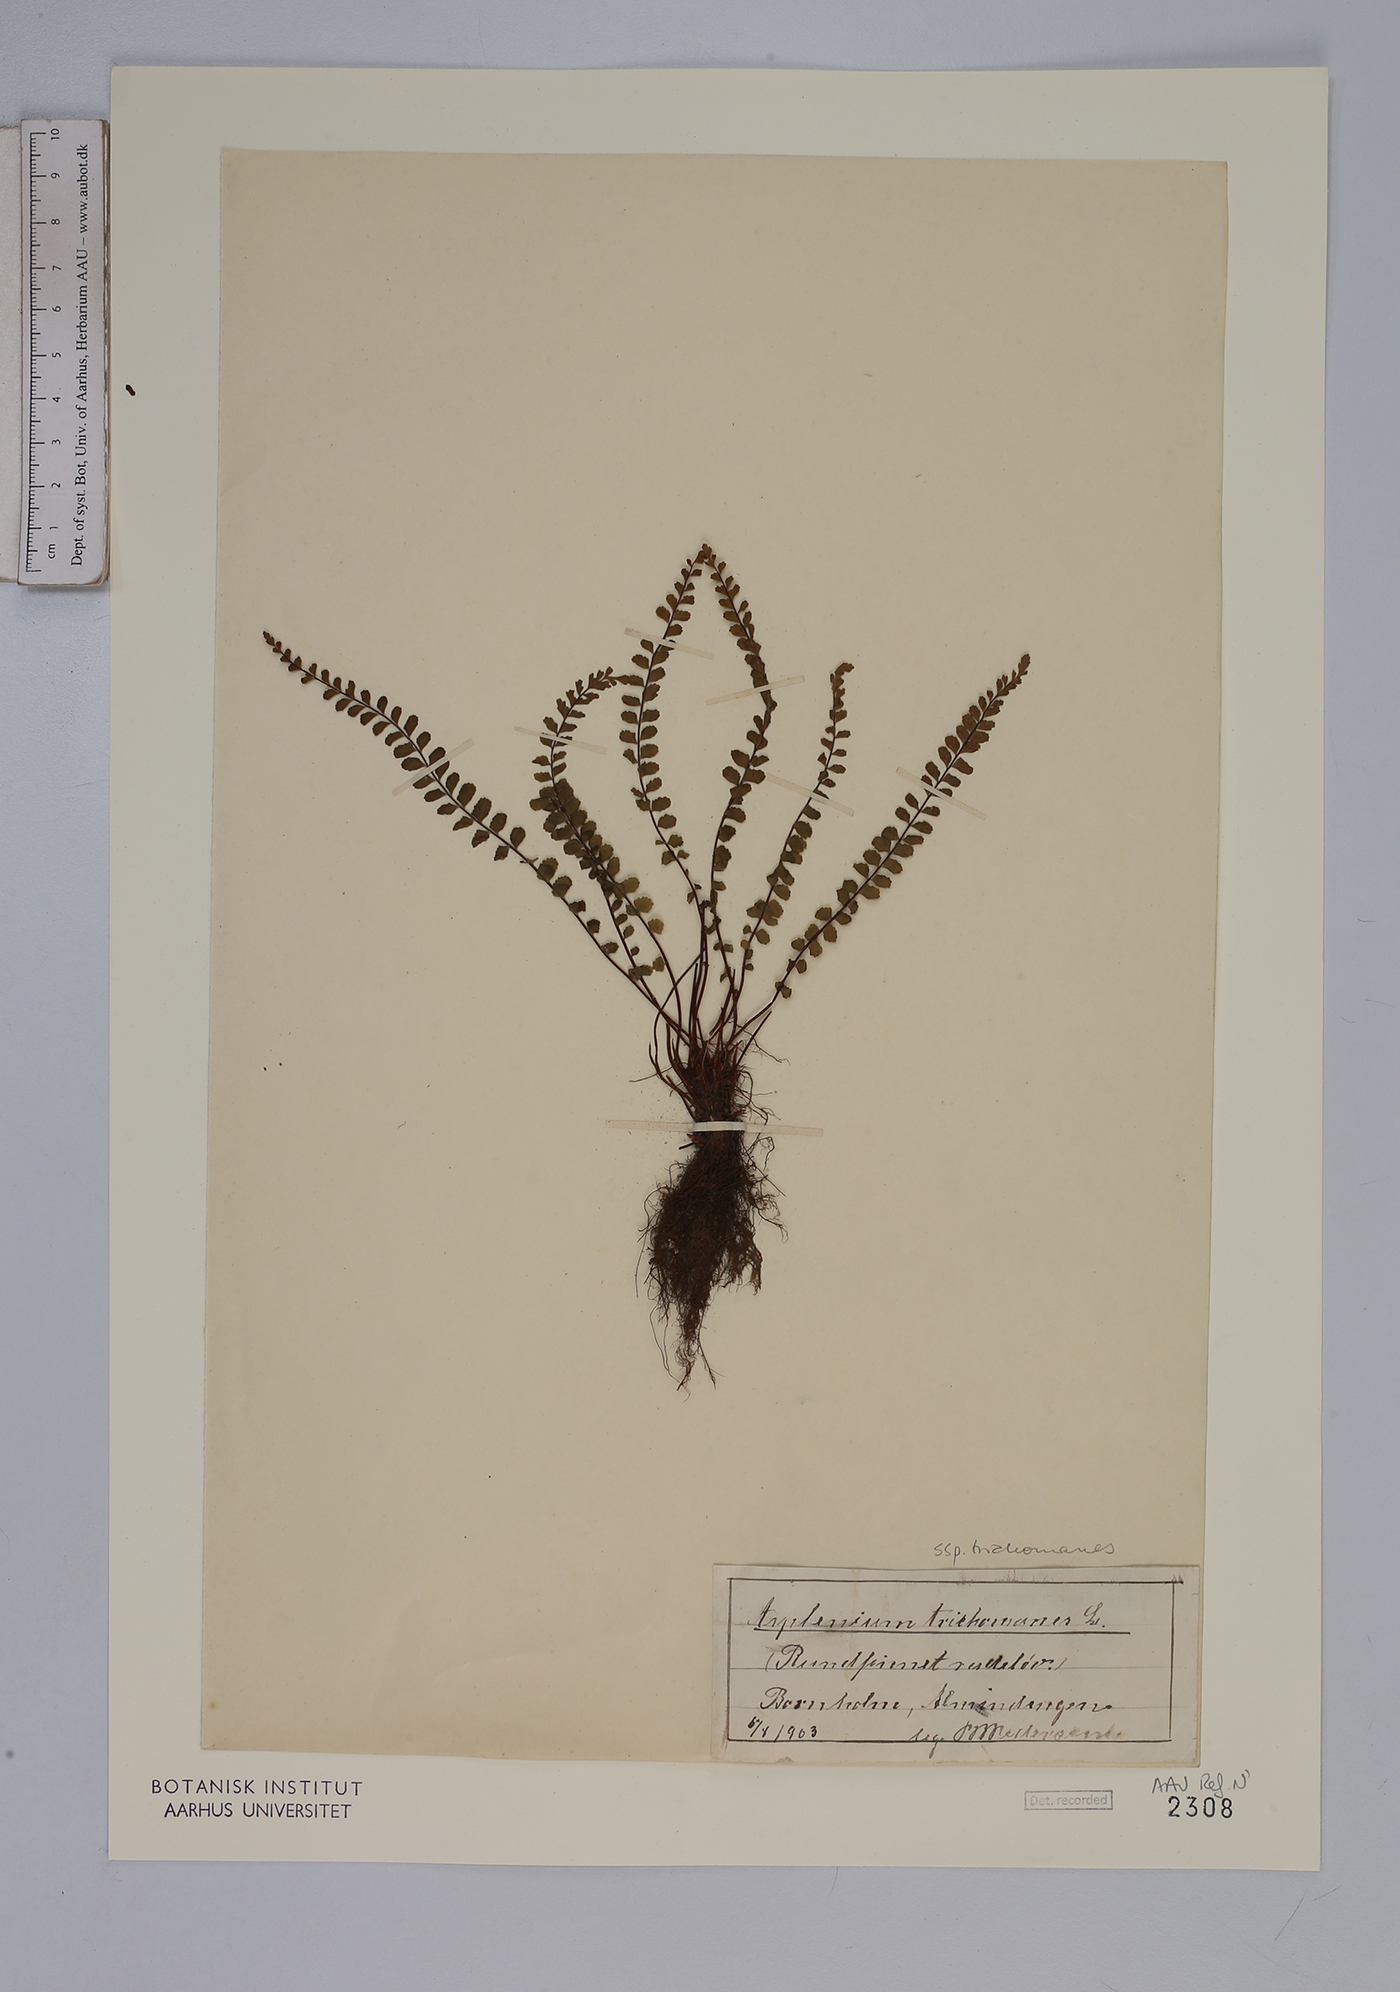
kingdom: Plantae
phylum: Tracheophyta
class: Polypodiopsida
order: Polypodiales
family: Aspleniaceae
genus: Asplenium
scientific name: Asplenium trichomanes
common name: Maidenhair spleenwort
